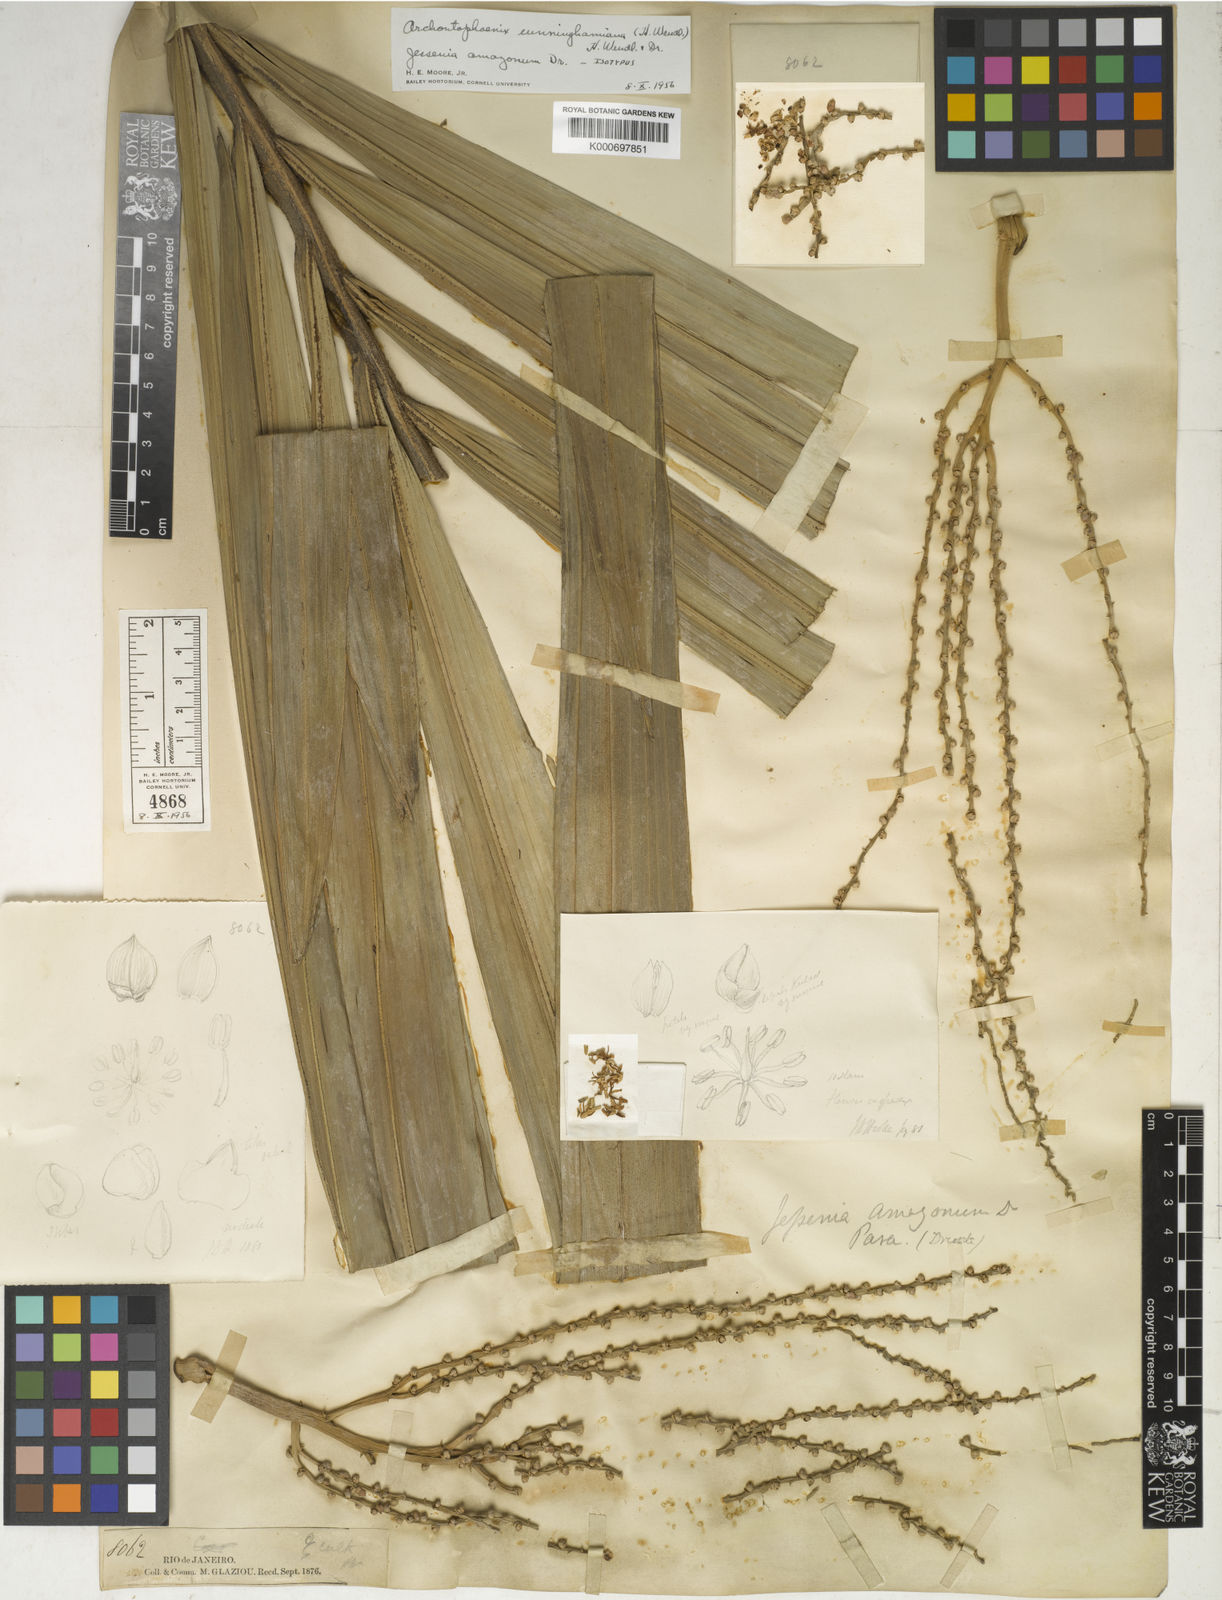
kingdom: Plantae
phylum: Tracheophyta
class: Liliopsida
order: Arecales
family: Arecaceae
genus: Archontophoenix
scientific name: Archontophoenix cunninghamiana
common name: Piccabeen bangalow palm
